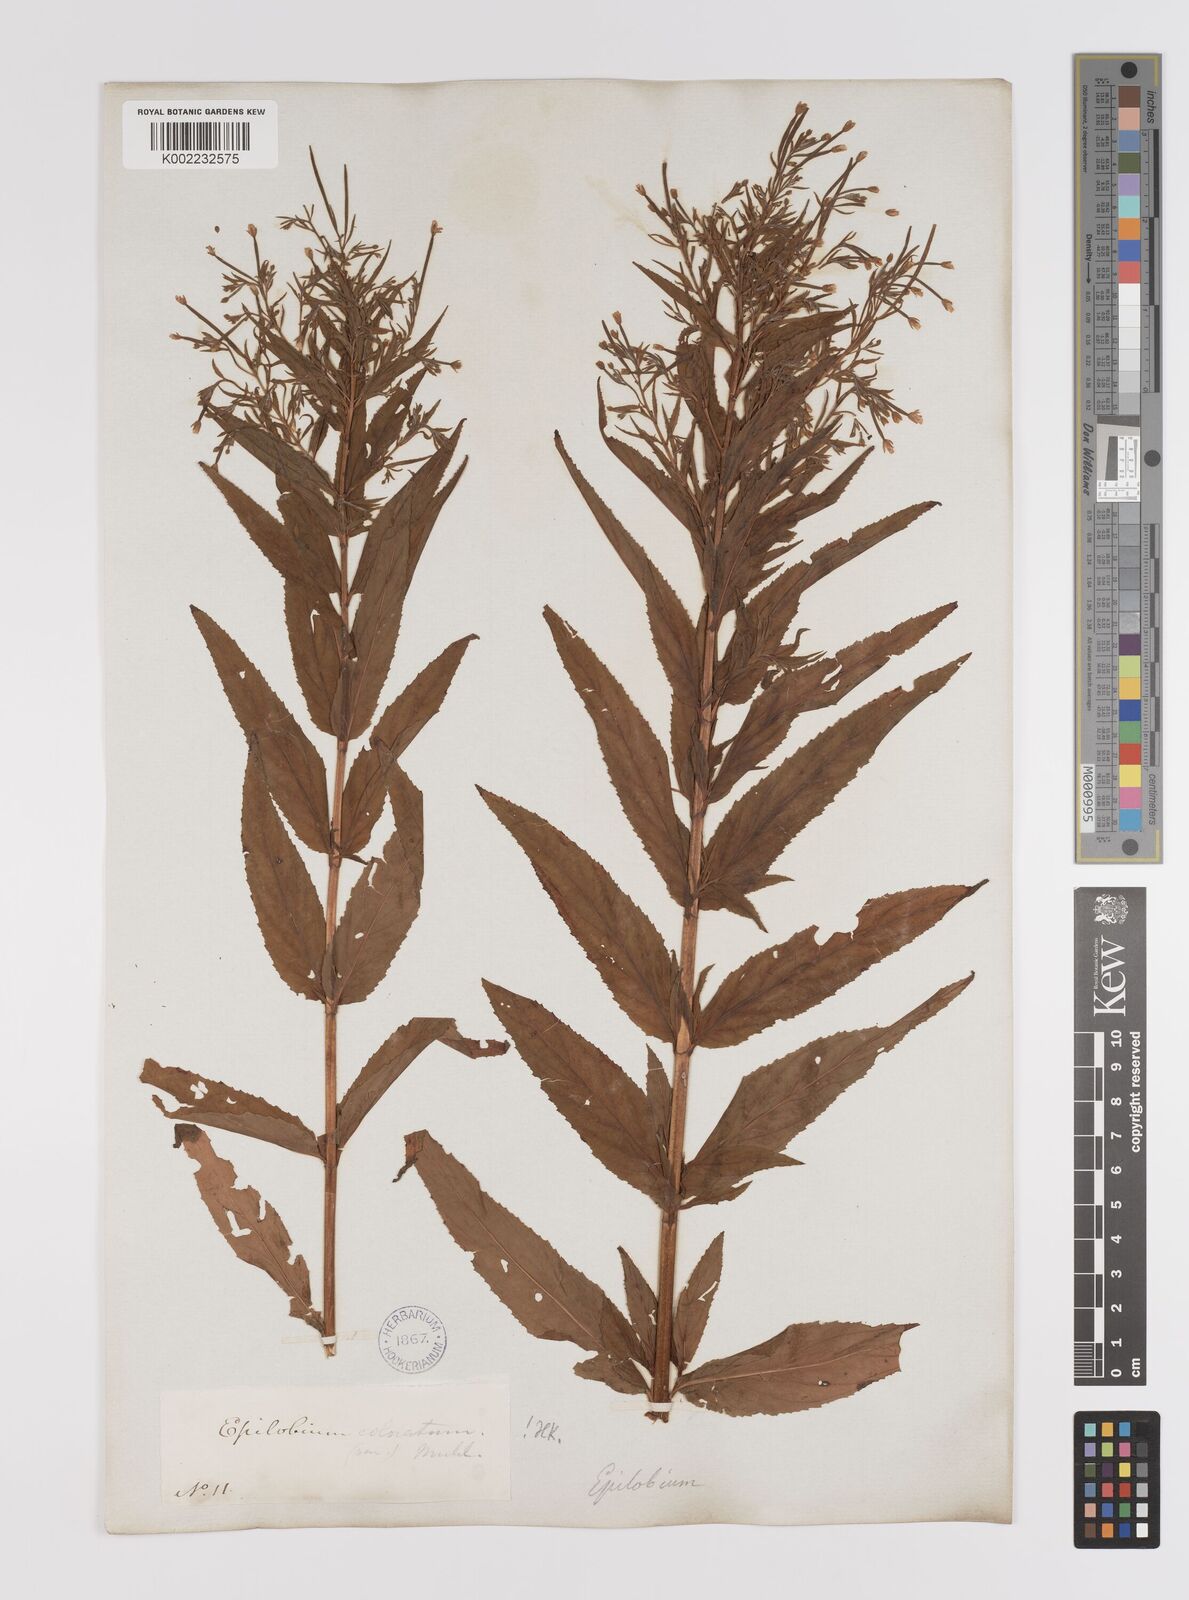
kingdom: Plantae
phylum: Tracheophyta
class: Magnoliopsida
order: Myrtales
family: Onagraceae
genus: Epilobium
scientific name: Epilobium coloratum
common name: Bronze willowherb
